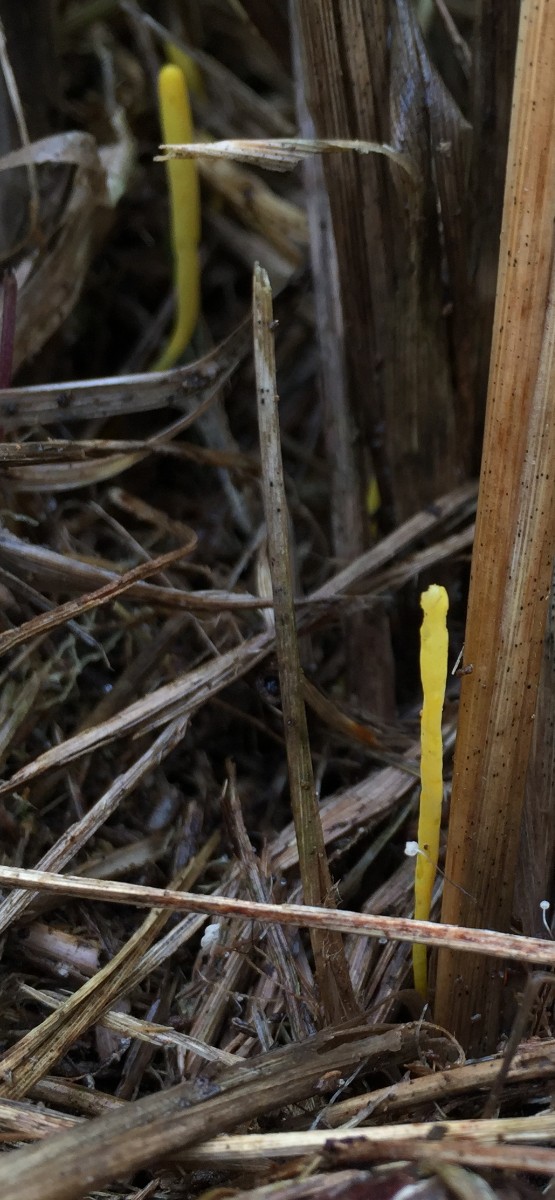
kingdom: Fungi
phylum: Basidiomycota
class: Agaricomycetes
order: Agaricales
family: Clavariaceae
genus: Clavulinopsis
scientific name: Clavulinopsis laeticolor
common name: flamme-køllesvamp
